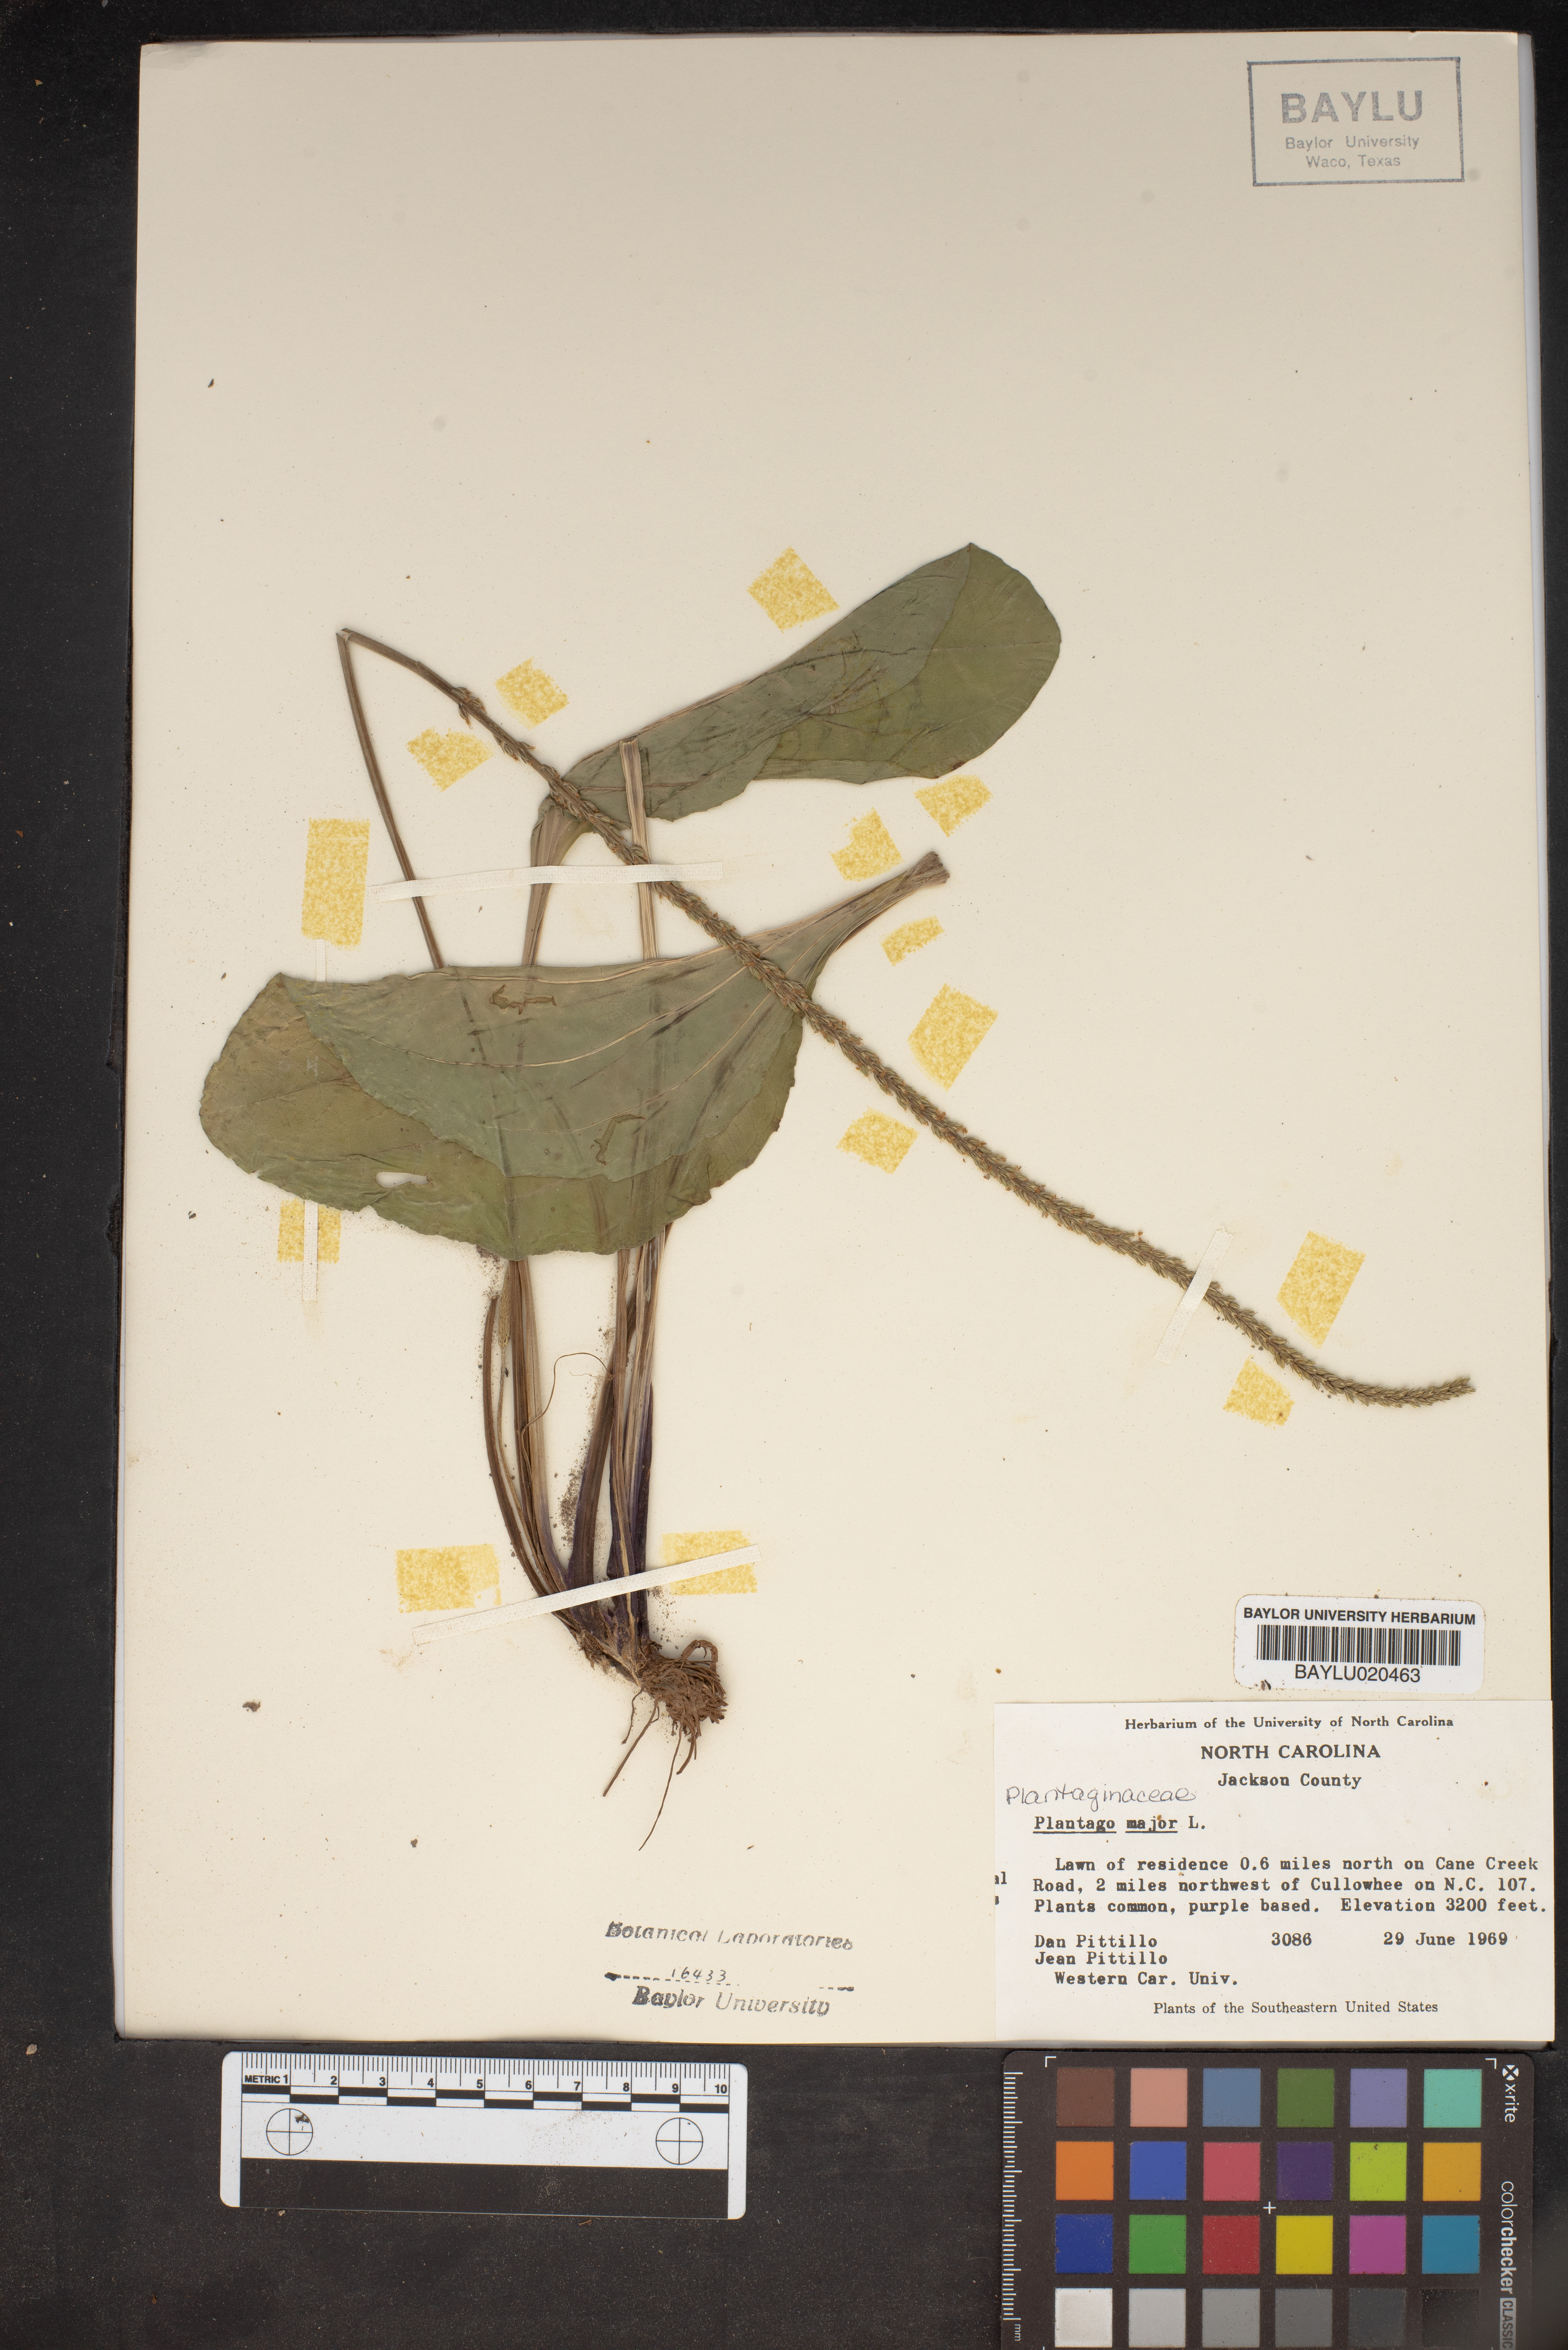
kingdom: Plantae
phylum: Tracheophyta
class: Magnoliopsida
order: Lamiales
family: Plantaginaceae
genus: Plantago
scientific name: Plantago major
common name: Common plantain
